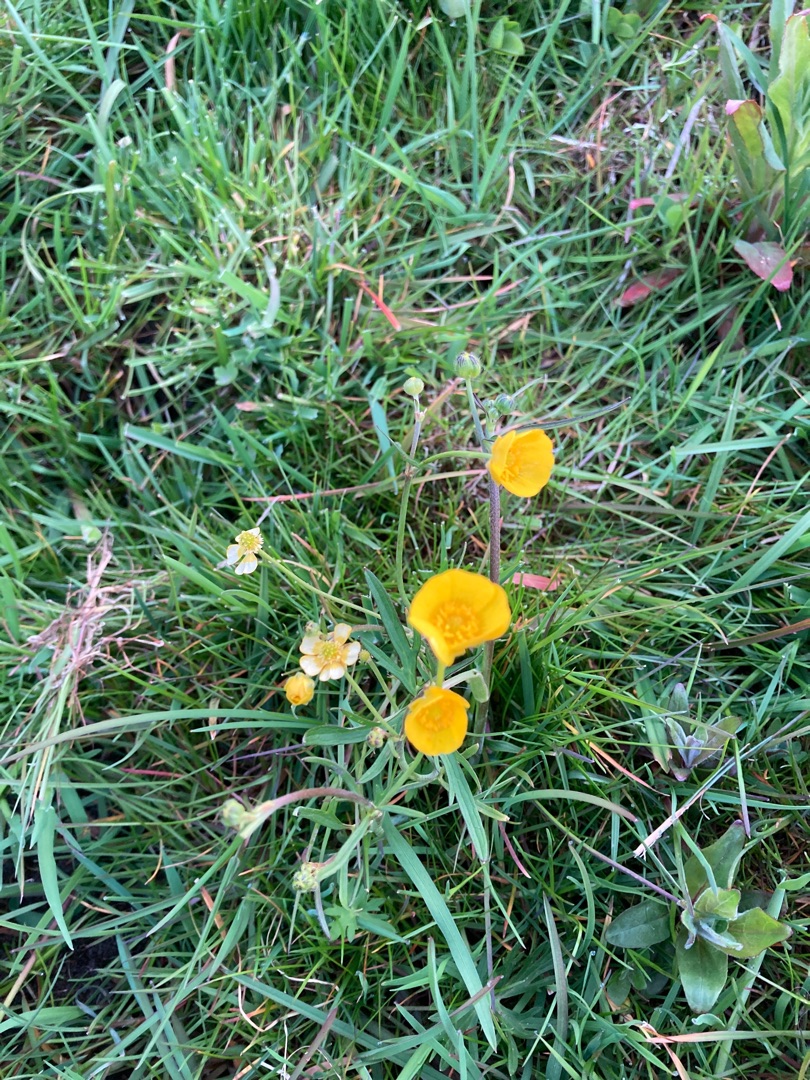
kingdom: Plantae
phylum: Tracheophyta
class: Magnoliopsida
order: Ranunculales
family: Ranunculaceae
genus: Ranunculus
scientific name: Ranunculus acris
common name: Bidende ranunkel
